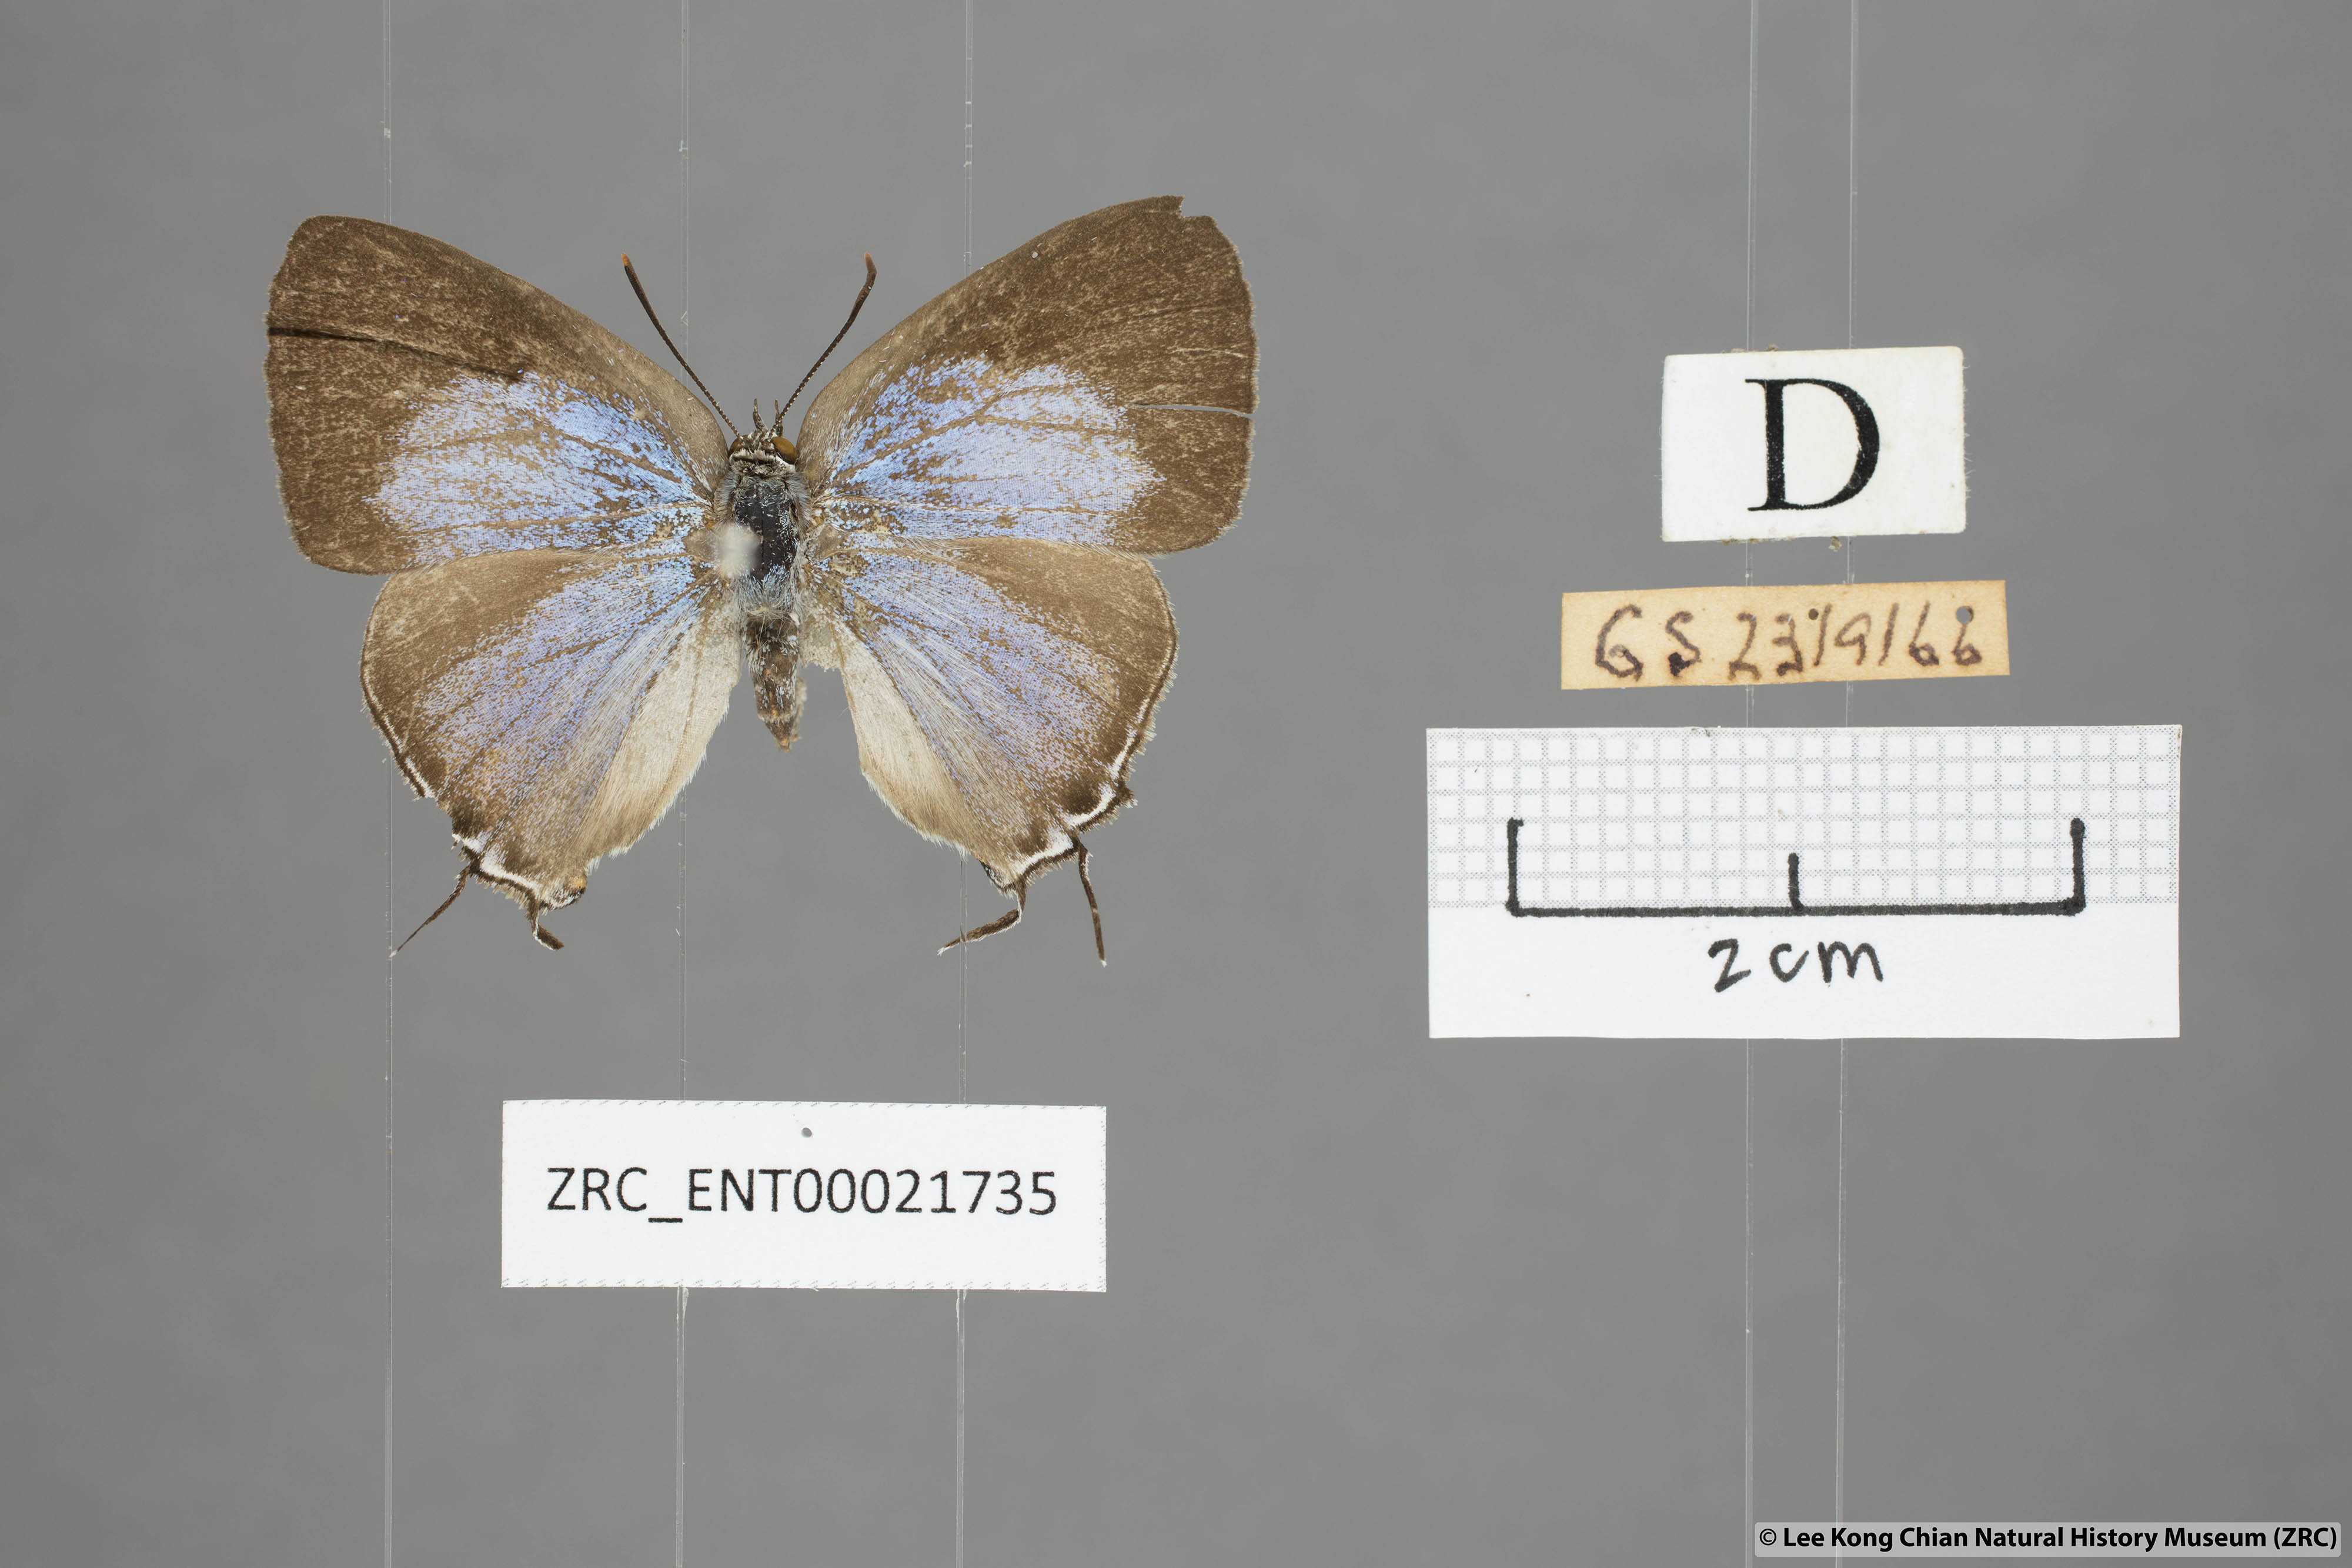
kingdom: Animalia
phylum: Arthropoda
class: Insecta
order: Lepidoptera
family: Lycaenidae
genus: Pratapa
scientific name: Pratapa deva
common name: White royal
